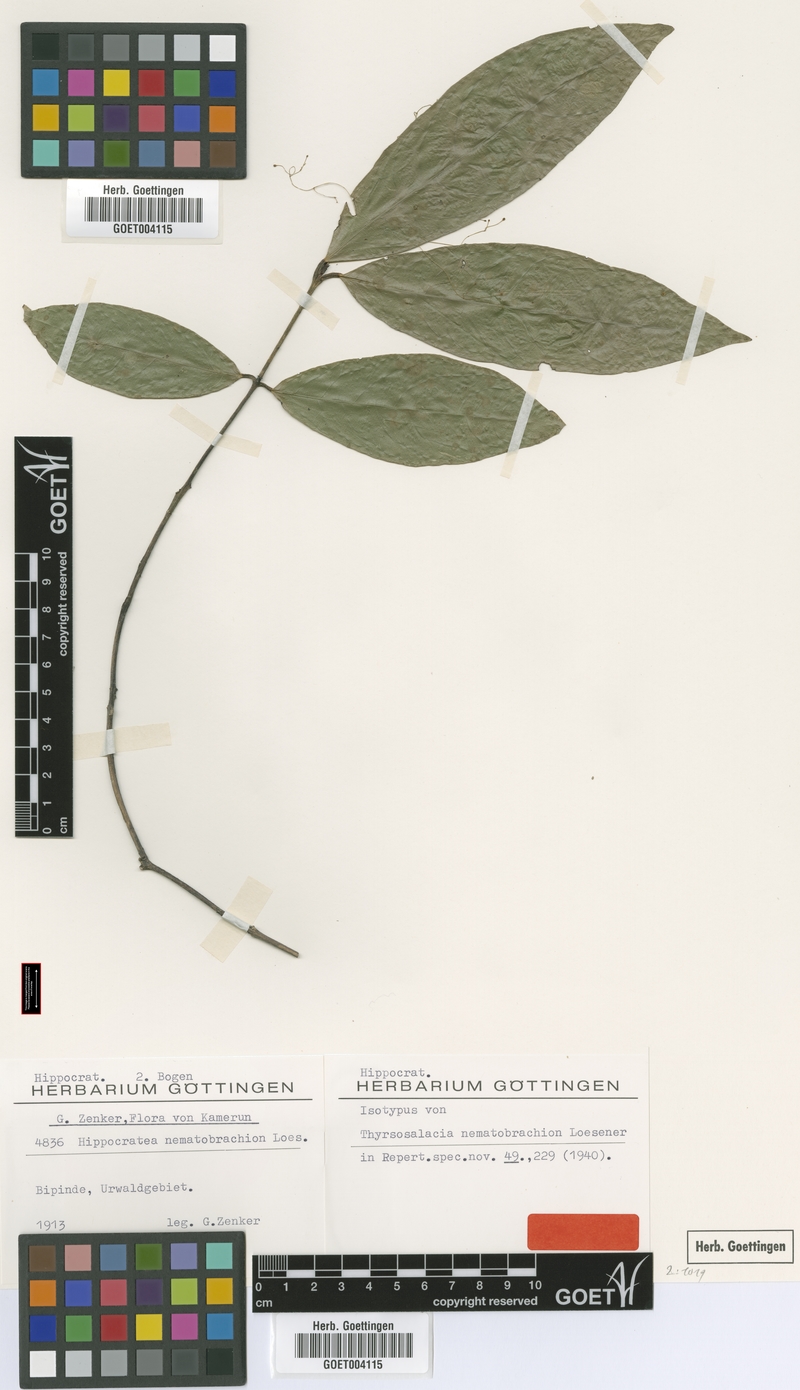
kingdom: Plantae
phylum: Tracheophyta
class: Magnoliopsida
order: Celastrales
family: Celastraceae
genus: Thyrsosalacia
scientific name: Thyrsosalacia nematobrachion
